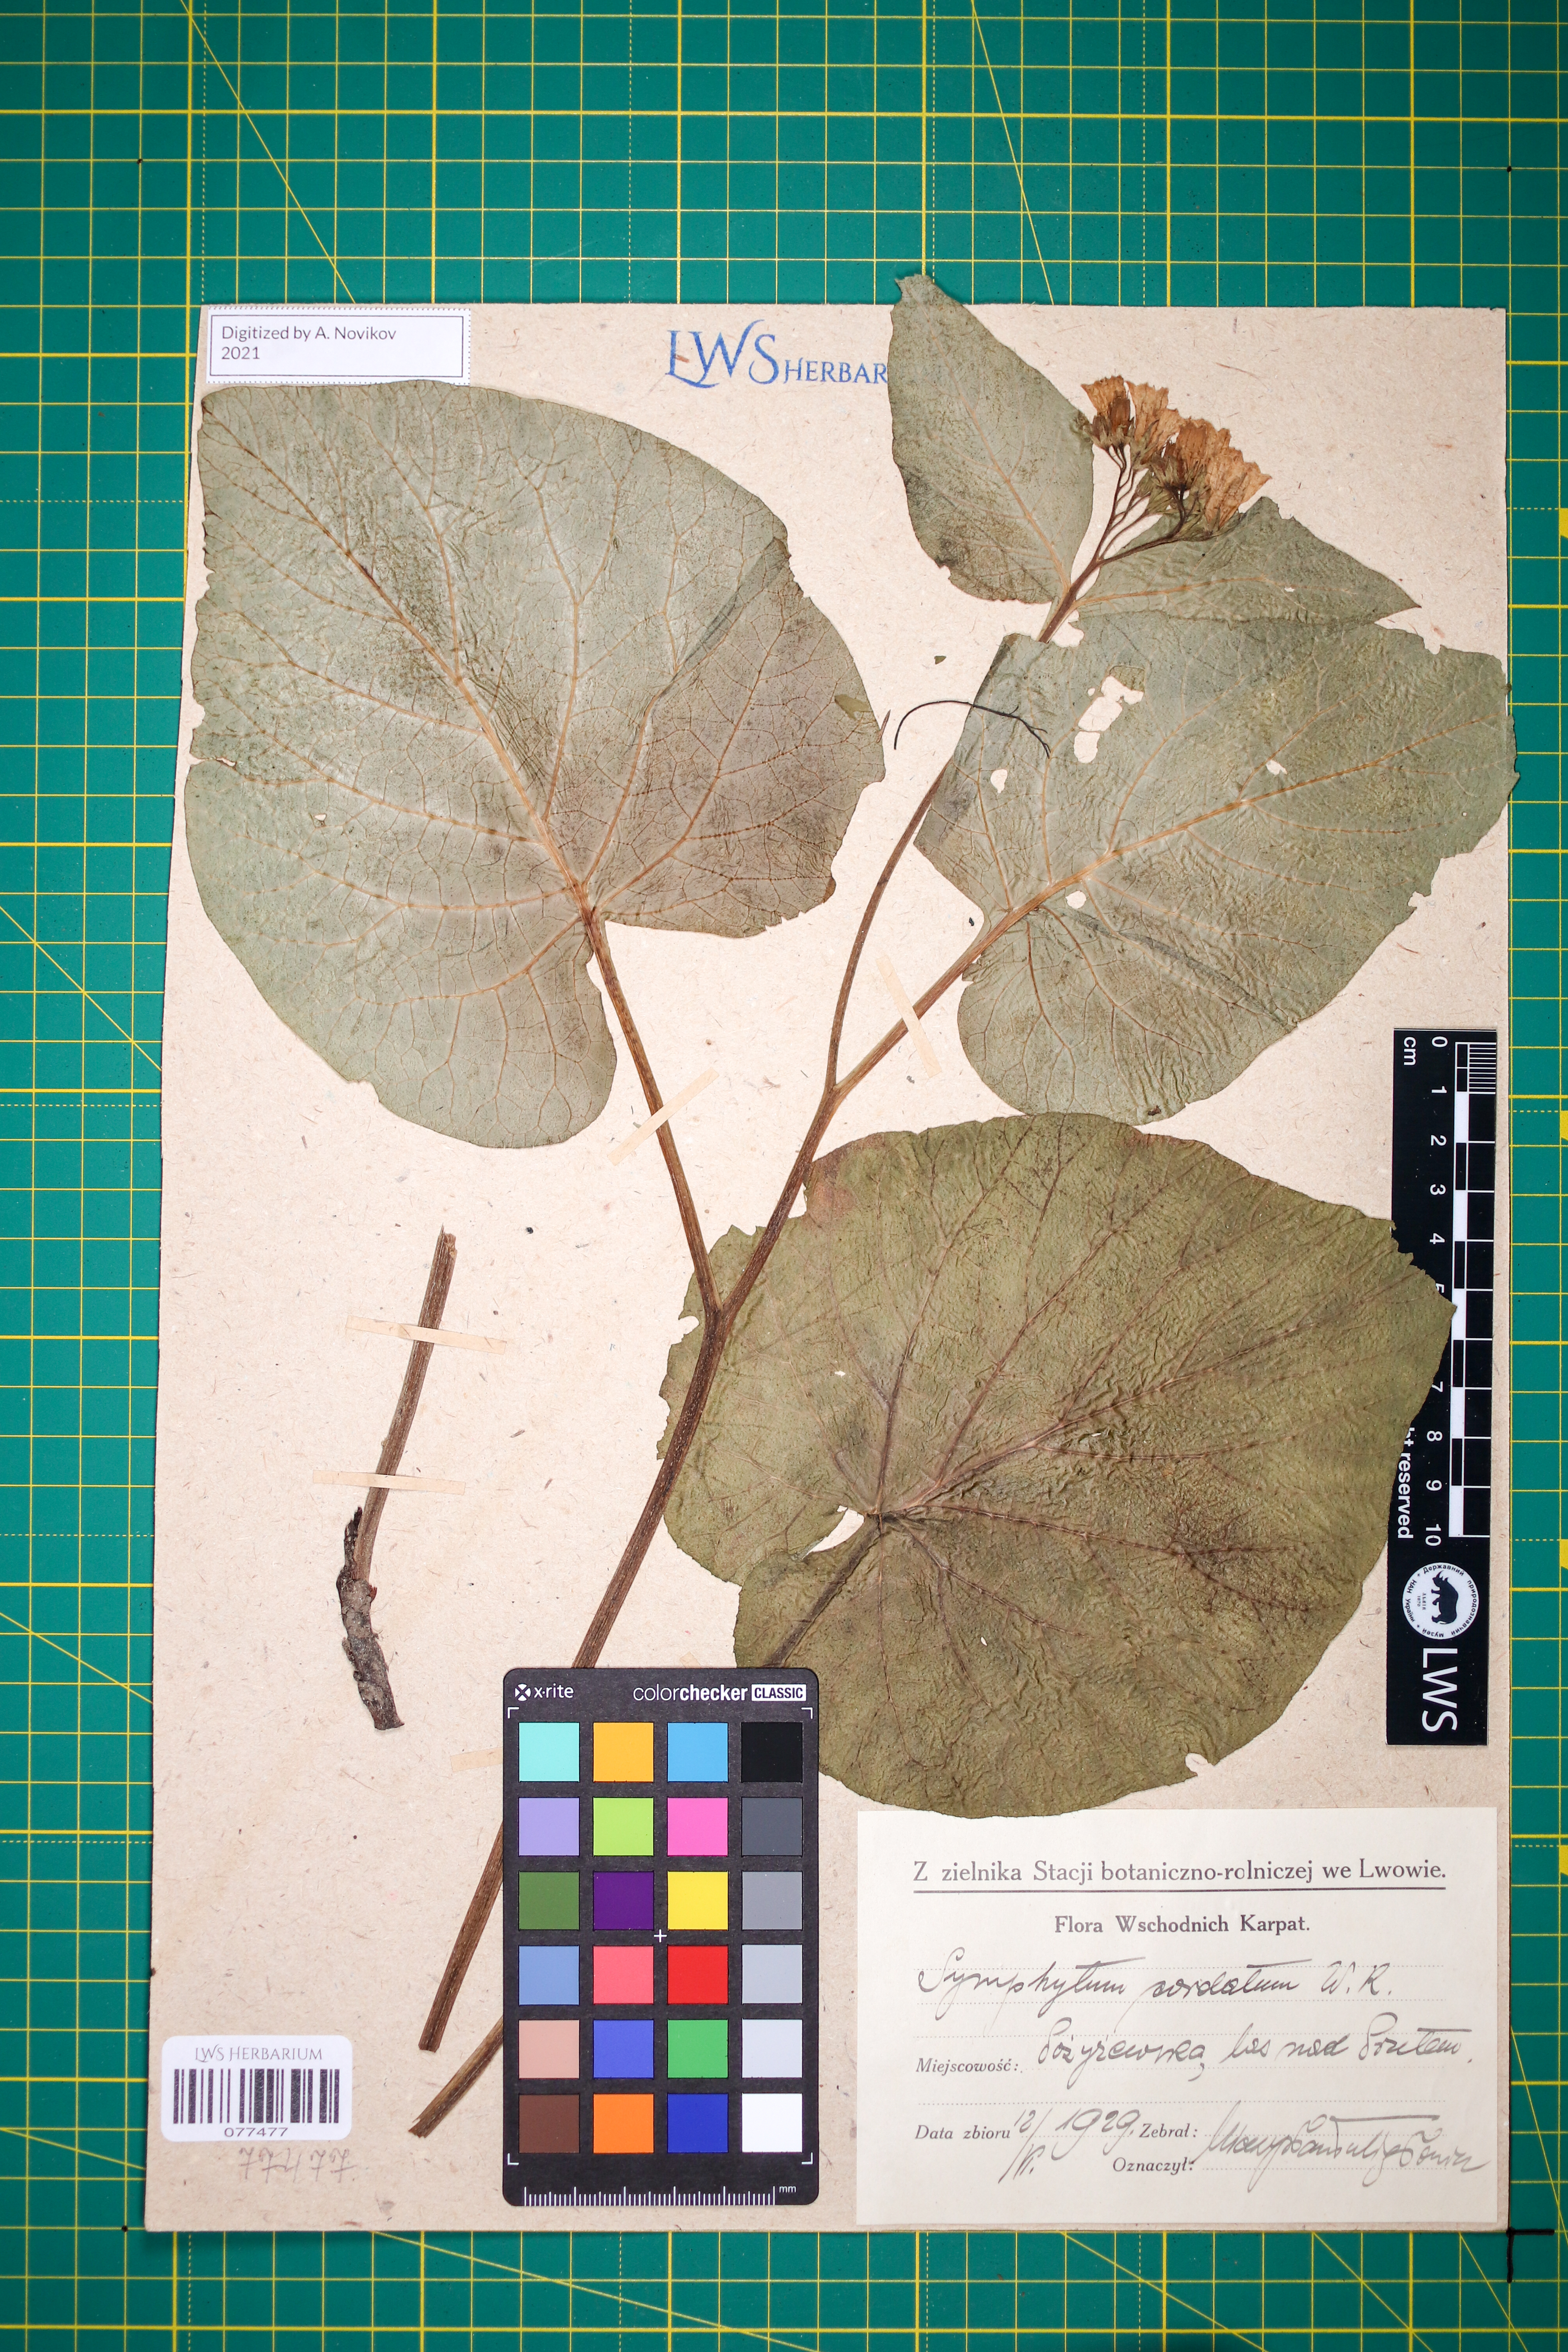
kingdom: Plantae
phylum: Tracheophyta
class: Magnoliopsida
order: Boraginales
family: Boraginaceae
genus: Symphytum
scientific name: Symphytum cordatum
